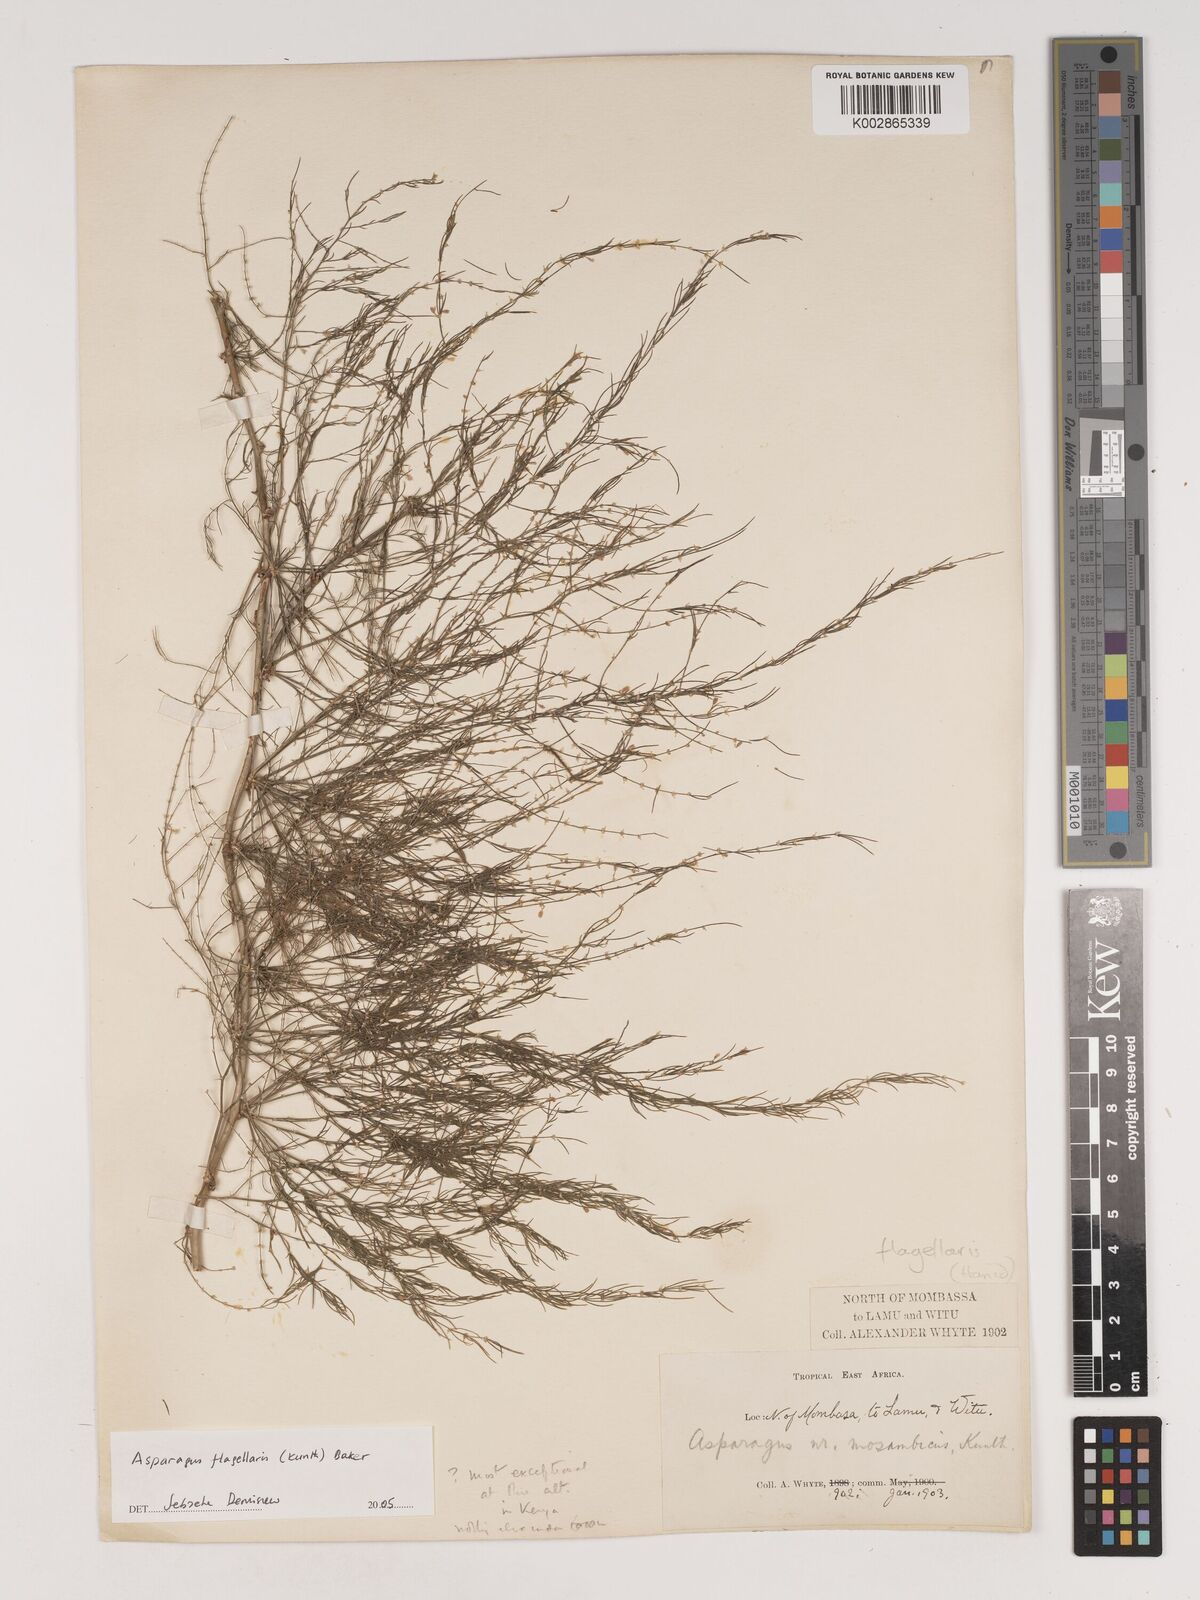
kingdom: Plantae
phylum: Tracheophyta
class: Liliopsida
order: Asparagales
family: Asparagaceae
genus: Asparagus
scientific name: Asparagus
